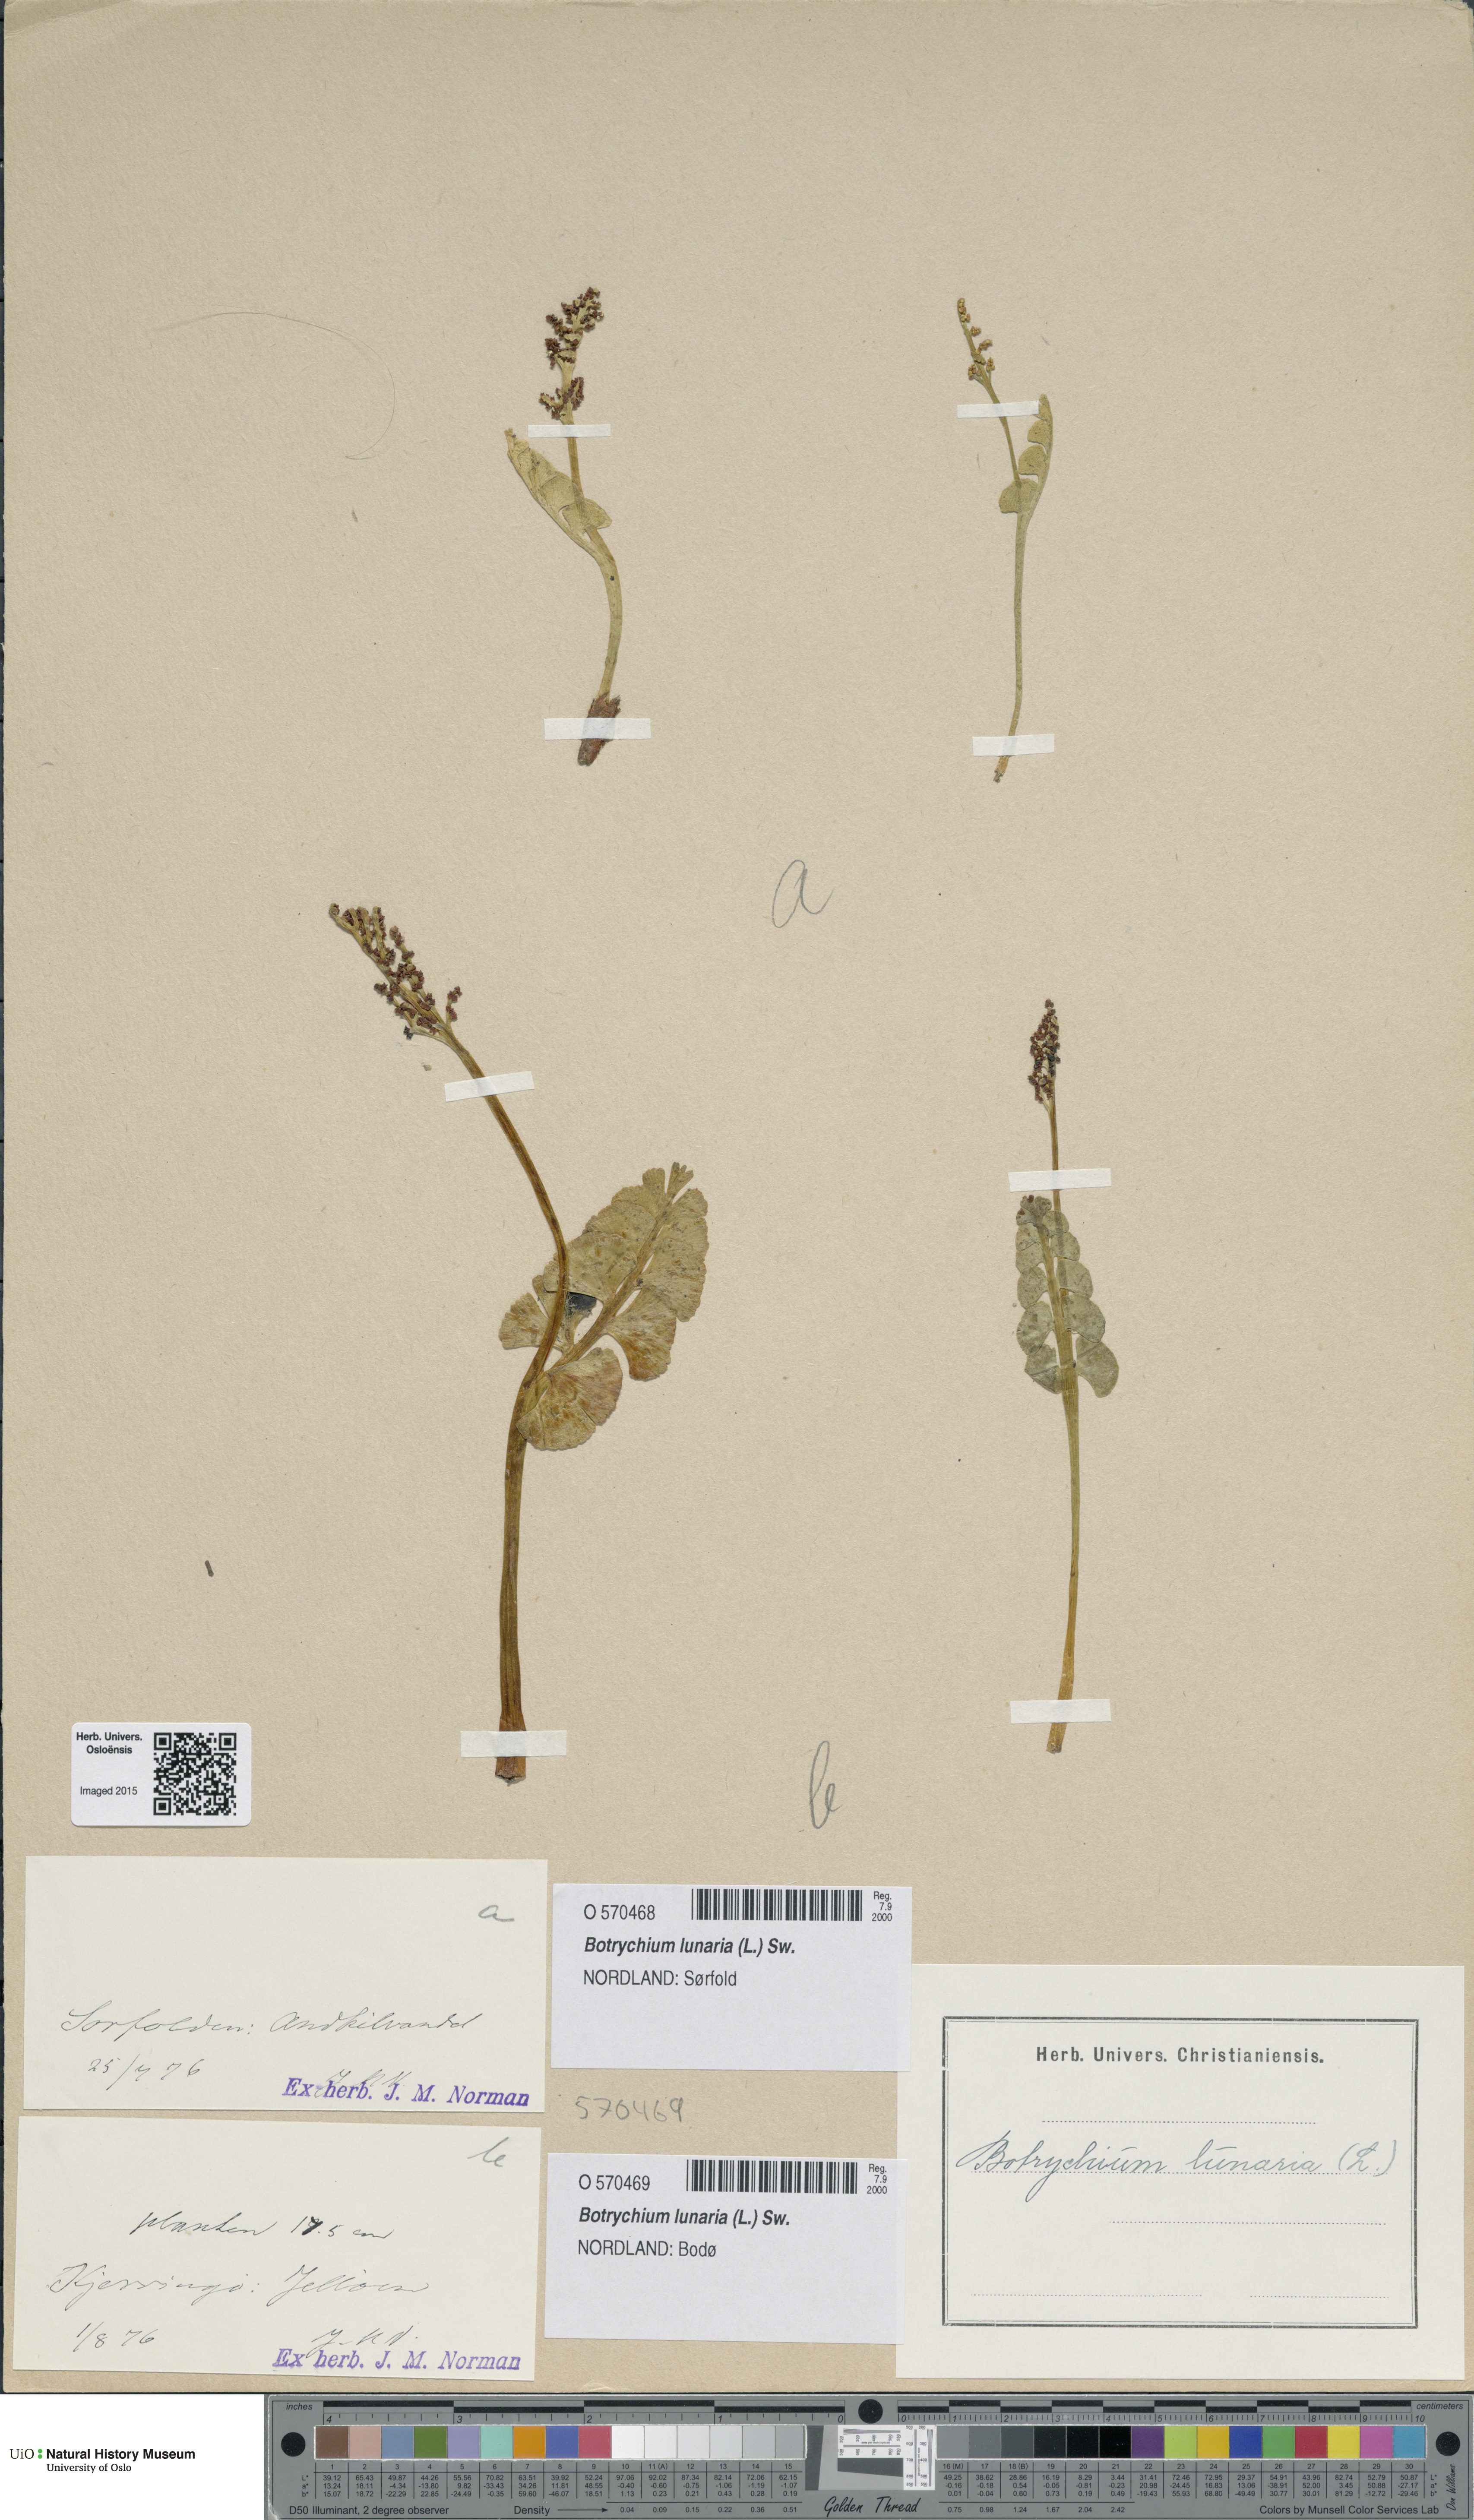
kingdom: Plantae
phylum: Tracheophyta
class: Polypodiopsida
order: Ophioglossales
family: Ophioglossaceae
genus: Botrychium
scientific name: Botrychium lunaria
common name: Moonwort
